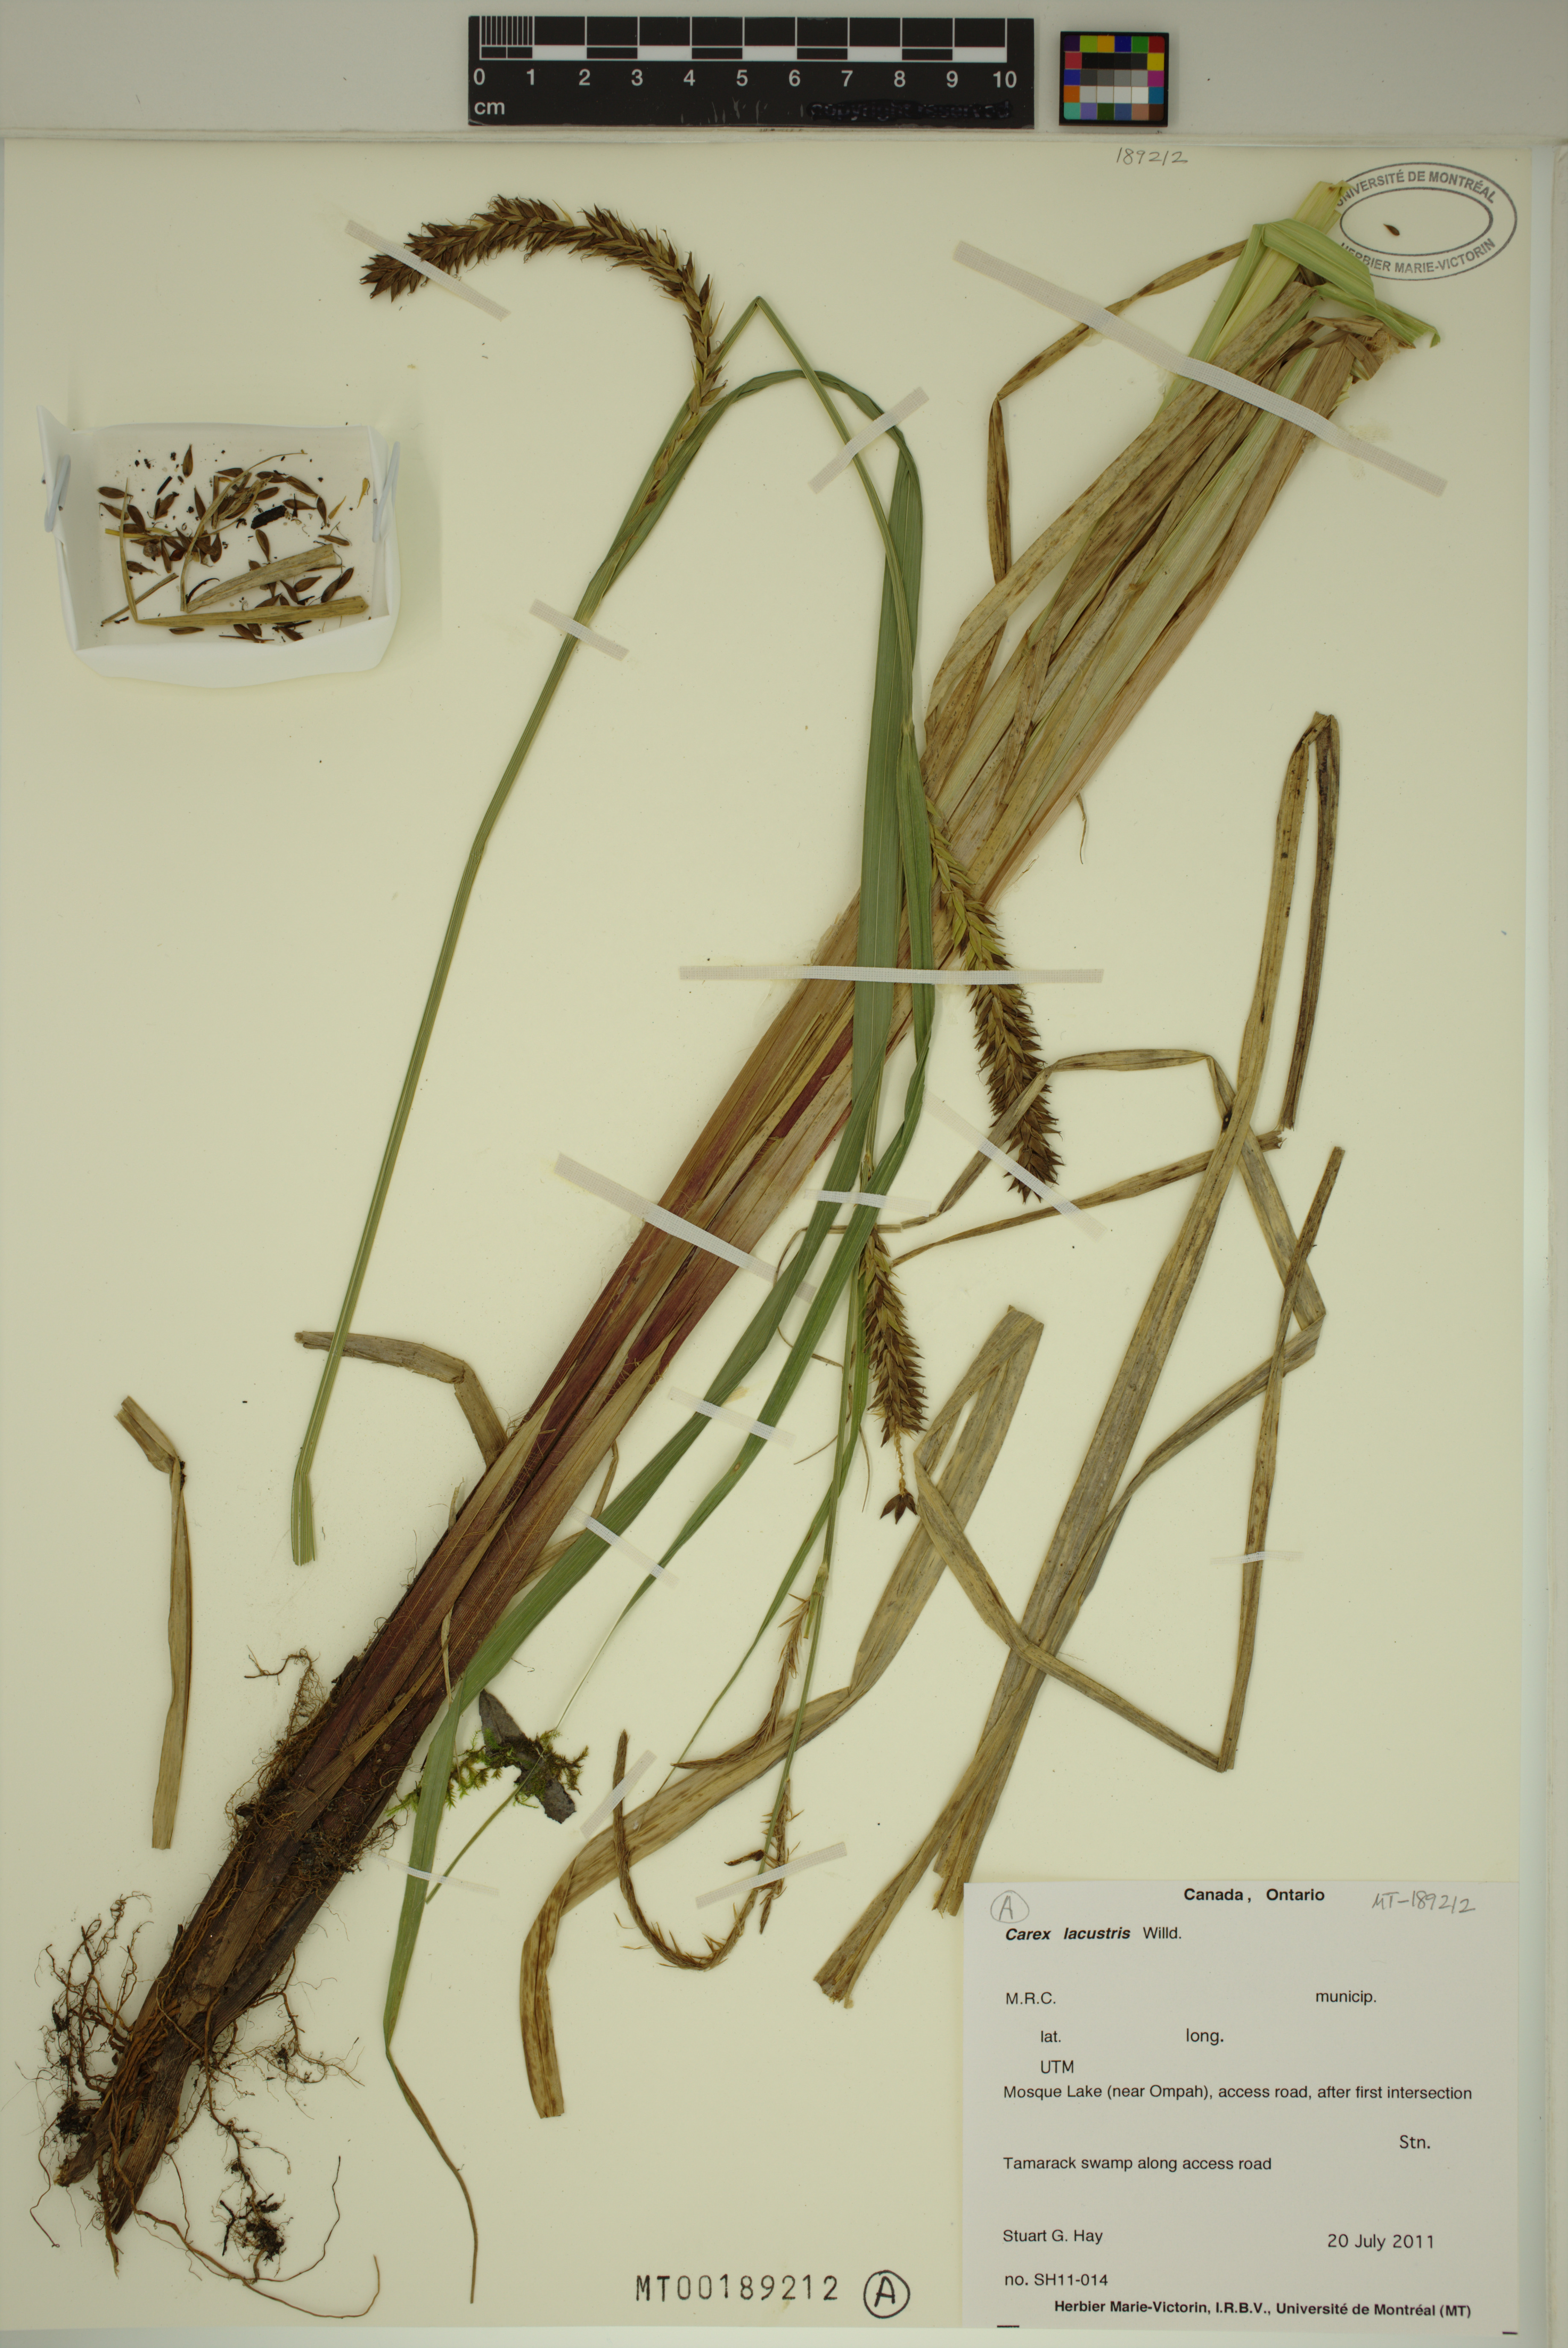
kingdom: Plantae
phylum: Tracheophyta
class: Liliopsida
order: Poales
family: Cyperaceae
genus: Carex
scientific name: Carex lacustris
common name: Common lake sedge
